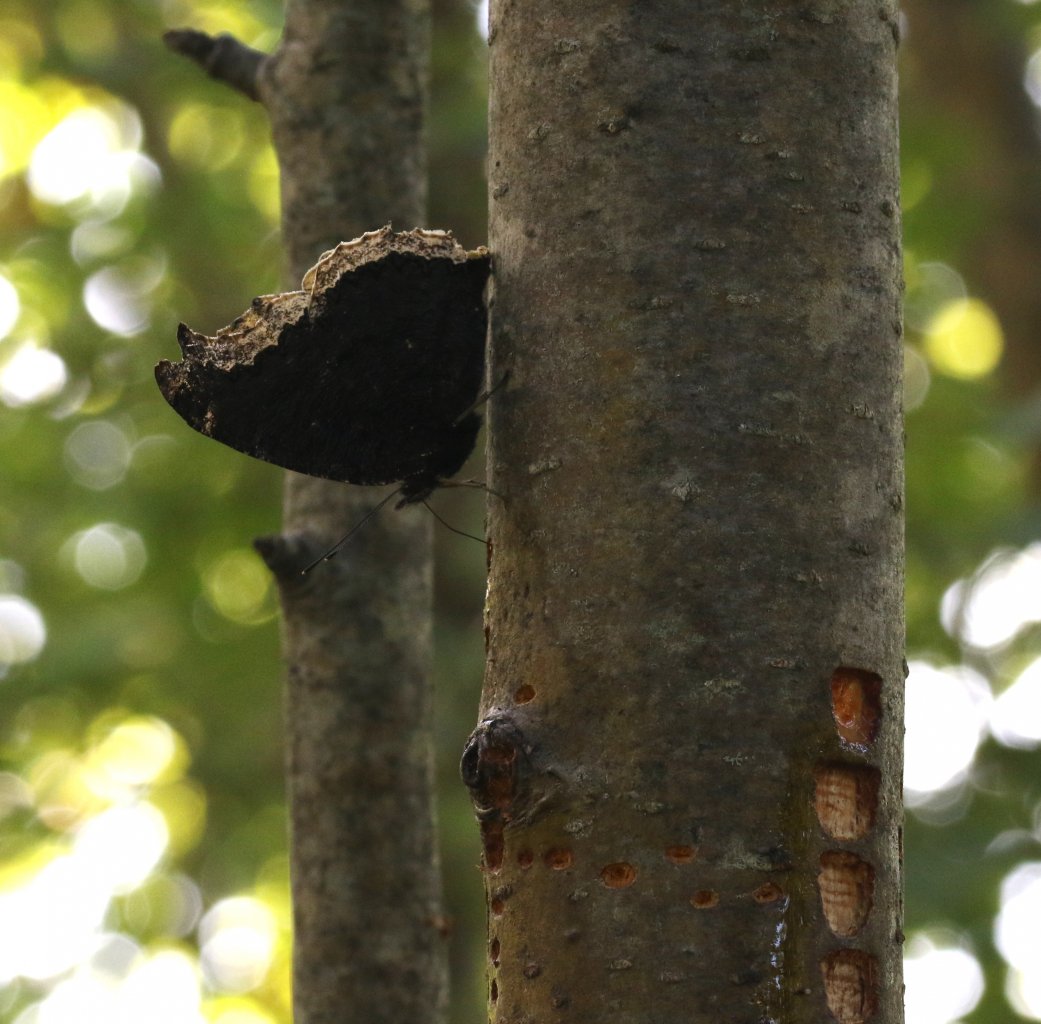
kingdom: Animalia
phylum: Arthropoda
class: Insecta
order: Lepidoptera
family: Nymphalidae
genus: Nymphalis
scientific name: Nymphalis antiopa
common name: Mourning Cloak
